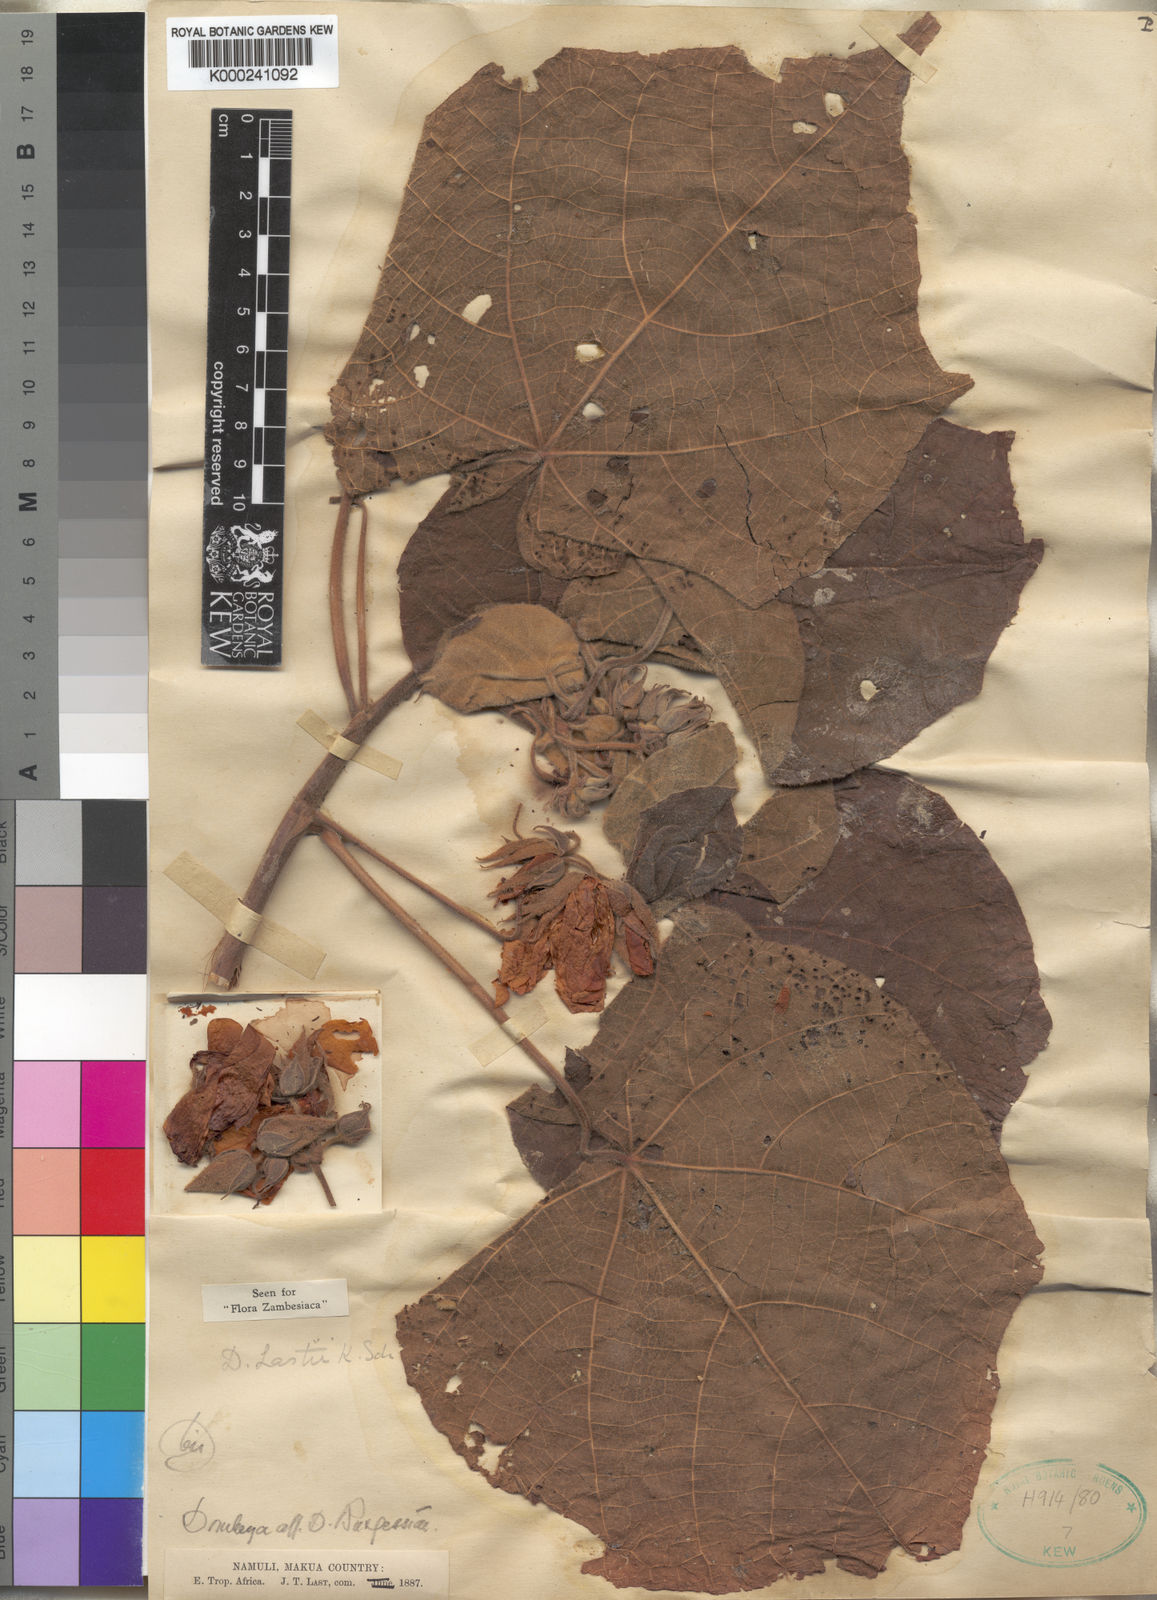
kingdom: Plantae
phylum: Tracheophyta
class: Magnoliopsida
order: Malvales
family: Malvaceae
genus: Dombeya
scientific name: Dombeya lastii
